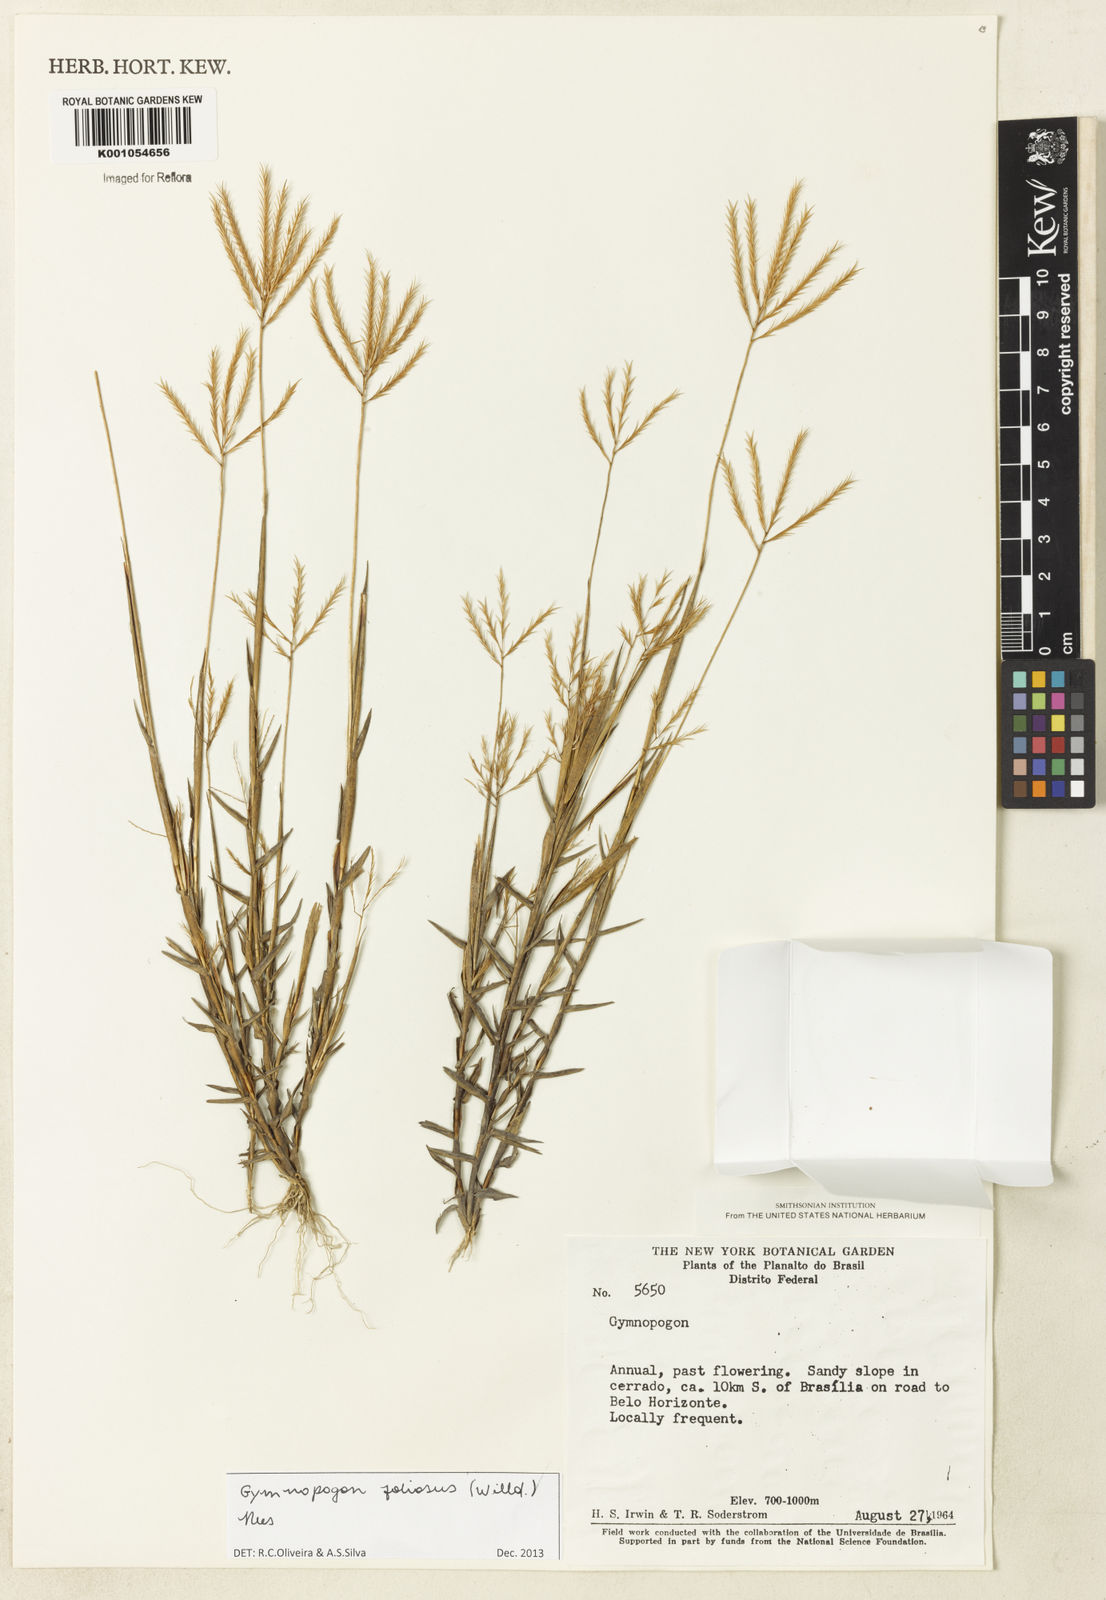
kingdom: Plantae
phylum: Tracheophyta
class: Liliopsida
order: Poales
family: Poaceae
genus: Gymnopogon
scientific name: Gymnopogon foliosus
